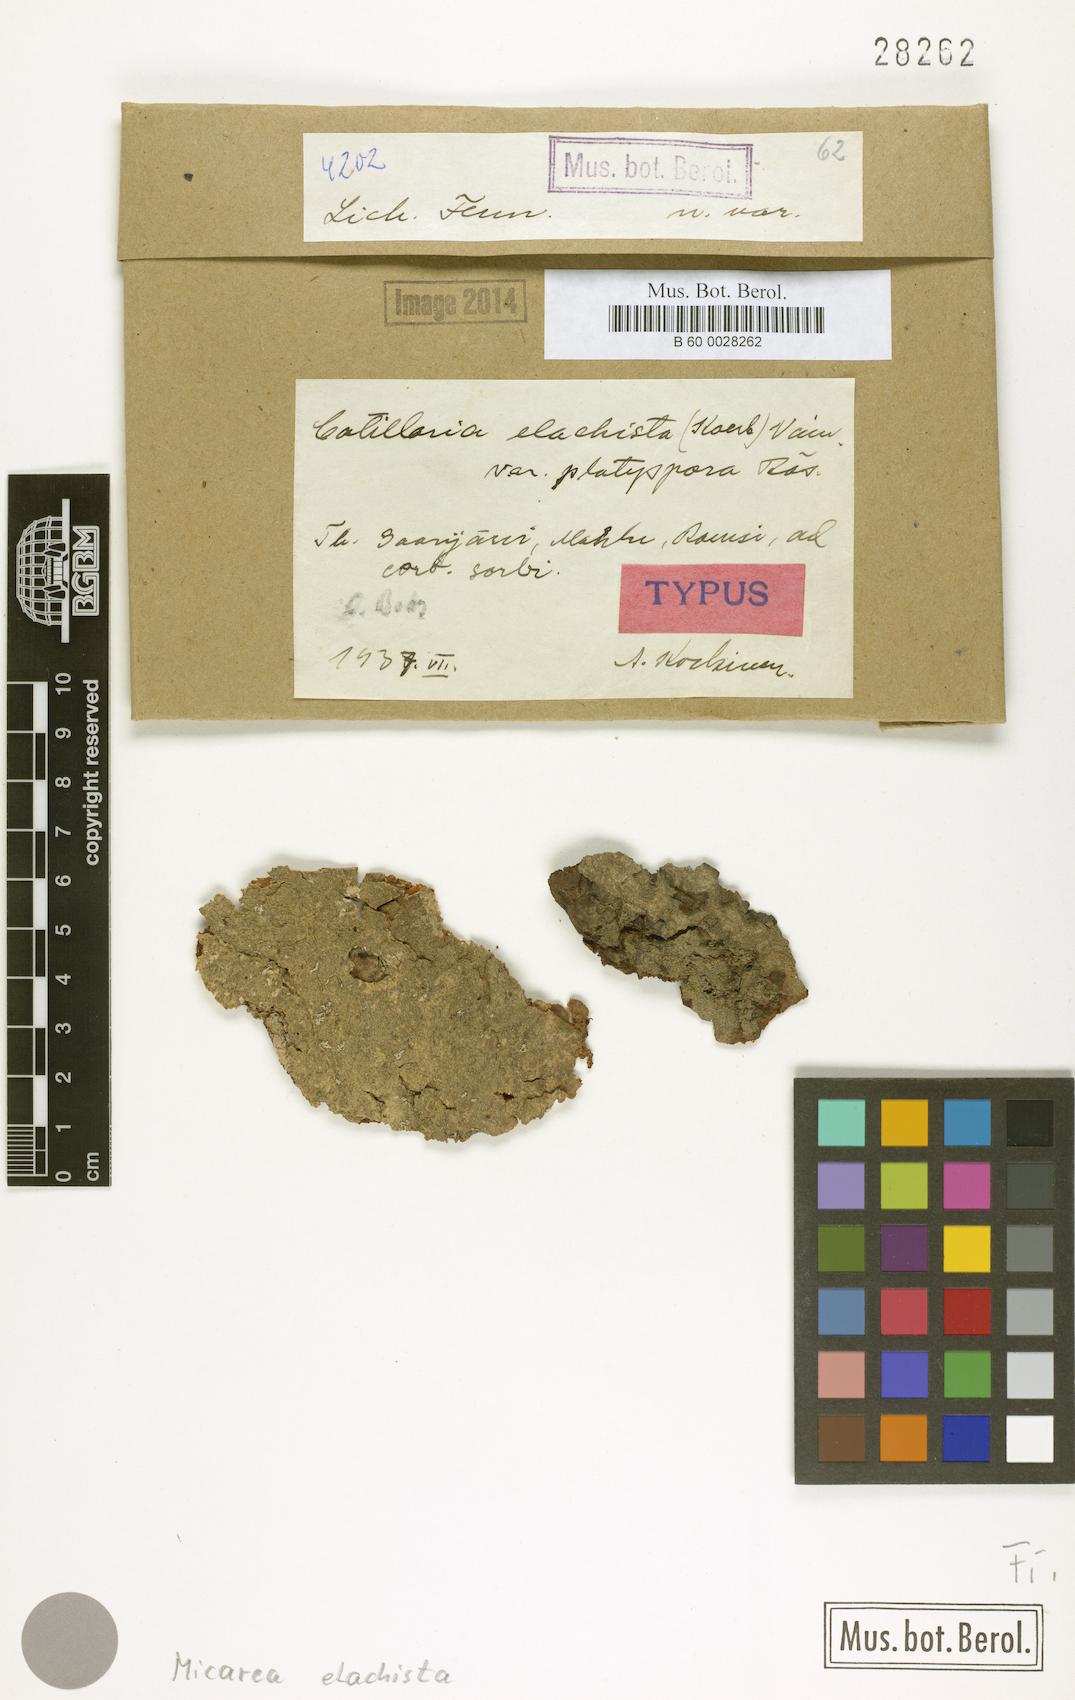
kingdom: Fungi
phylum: Ascomycota
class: Lecanoromycetes
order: Lecanorales
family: Byssolomataceae
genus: Micarea
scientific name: Micarea elachista
